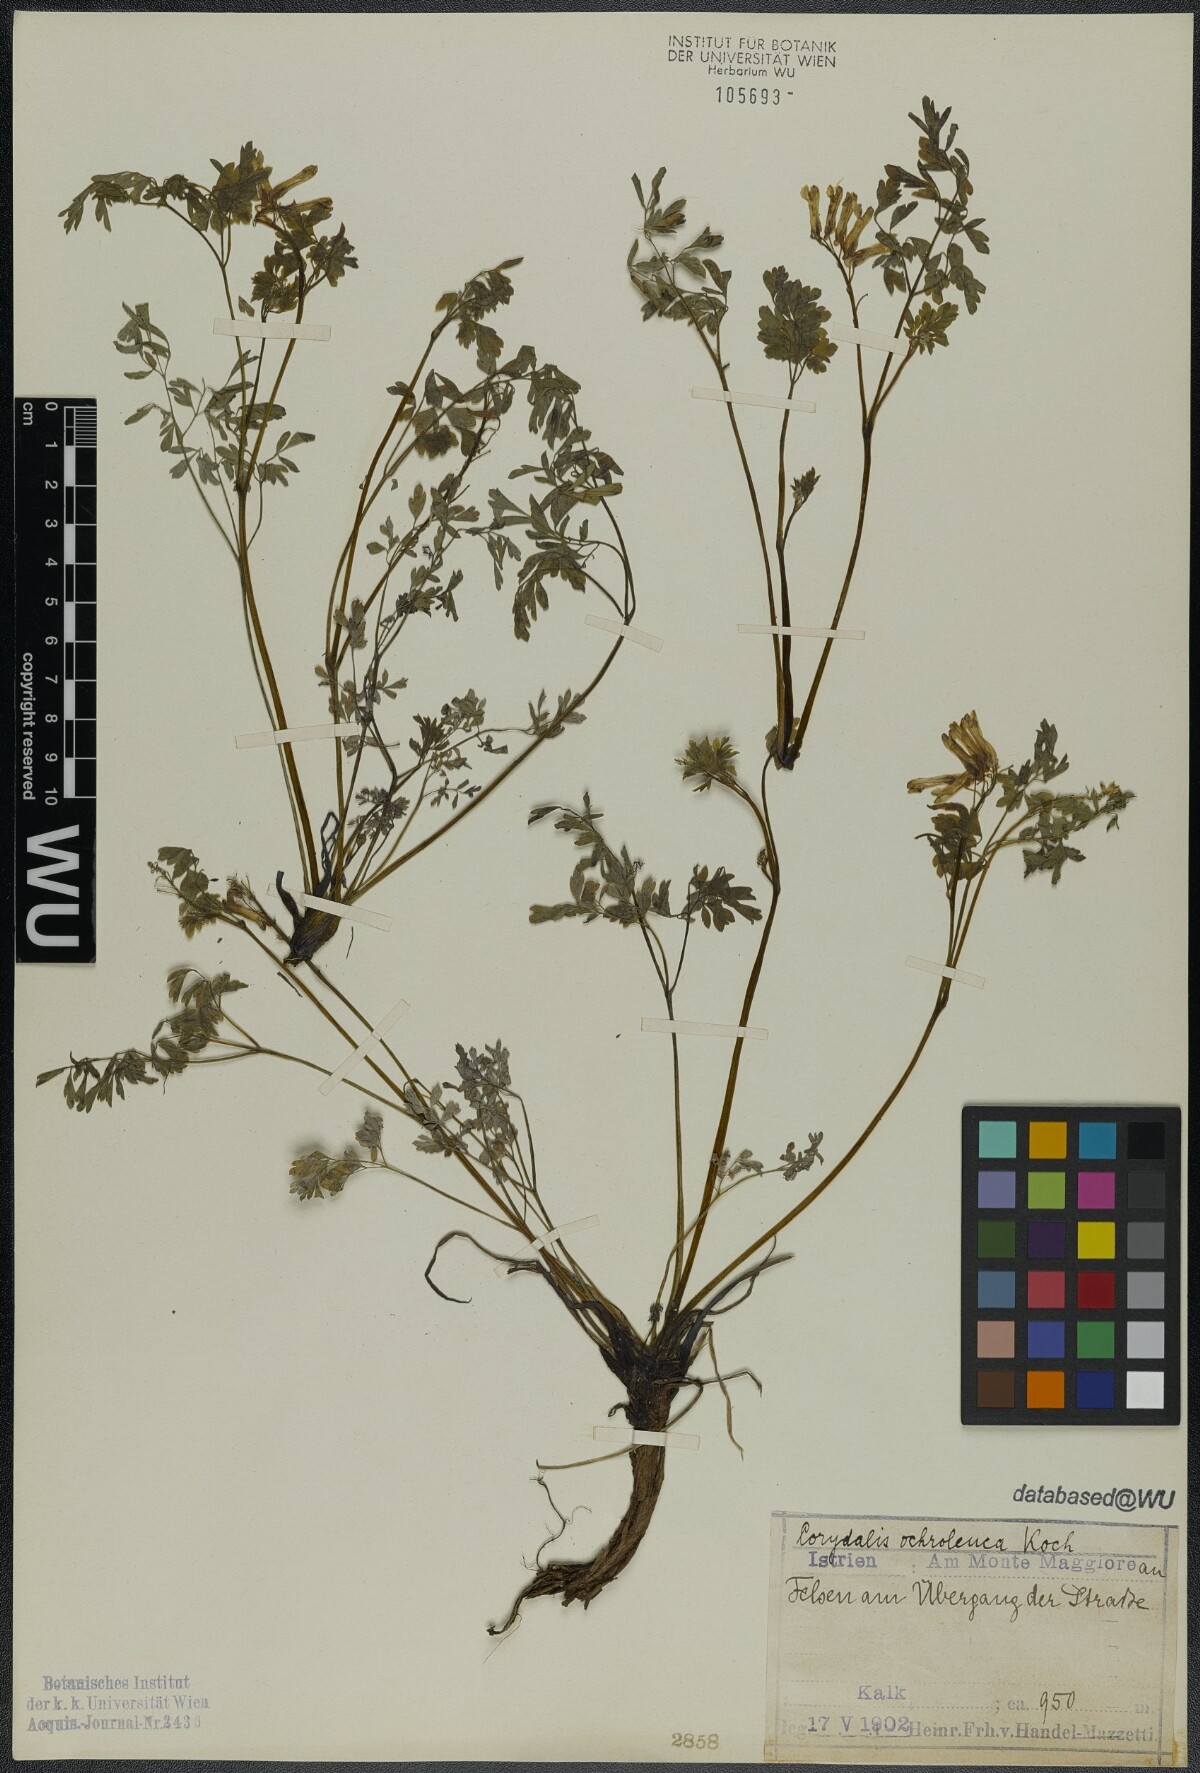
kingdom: Plantae
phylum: Tracheophyta
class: Magnoliopsida
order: Ranunculales
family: Papaveraceae
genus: Pseudofumaria
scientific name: Pseudofumaria alba
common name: Pale corydalis
